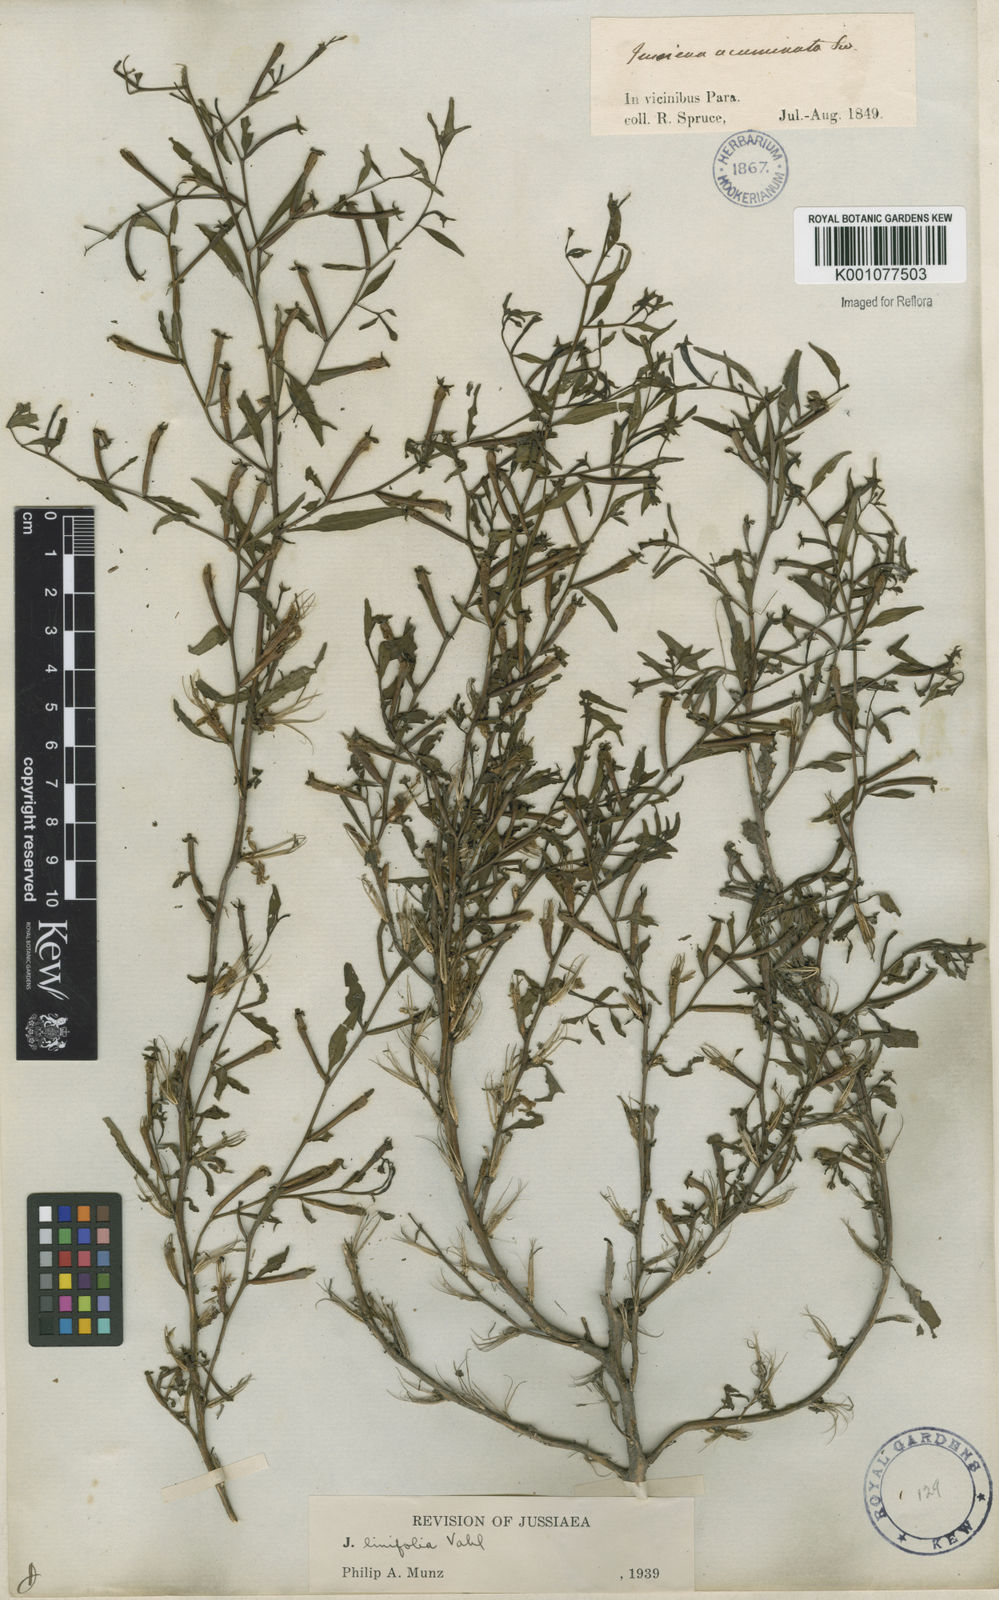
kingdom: Plantae
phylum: Tracheophyta
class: Magnoliopsida
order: Myrtales
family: Onagraceae
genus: Ludwigia
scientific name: Ludwigia hyssopifolia
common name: Linear leaf water primrose
